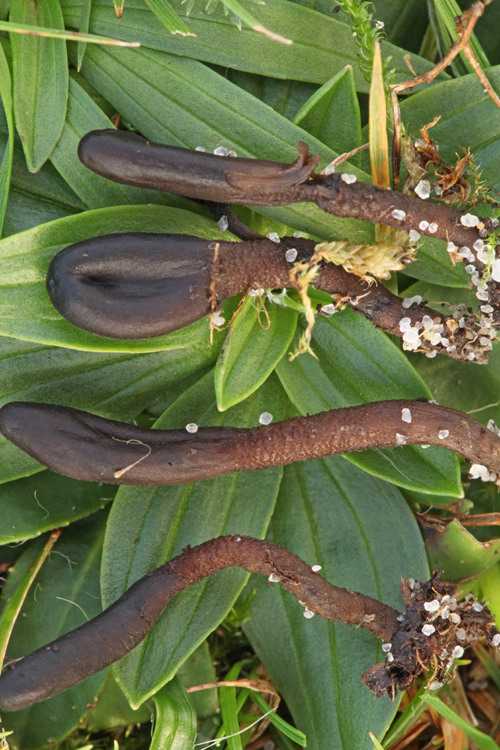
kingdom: Fungi
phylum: Ascomycota
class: Geoglossomycetes
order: Geoglossales
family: Geoglossaceae
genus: Hemileucoglossum
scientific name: Hemileucoglossum elongatum
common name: småsporet jordtunge
